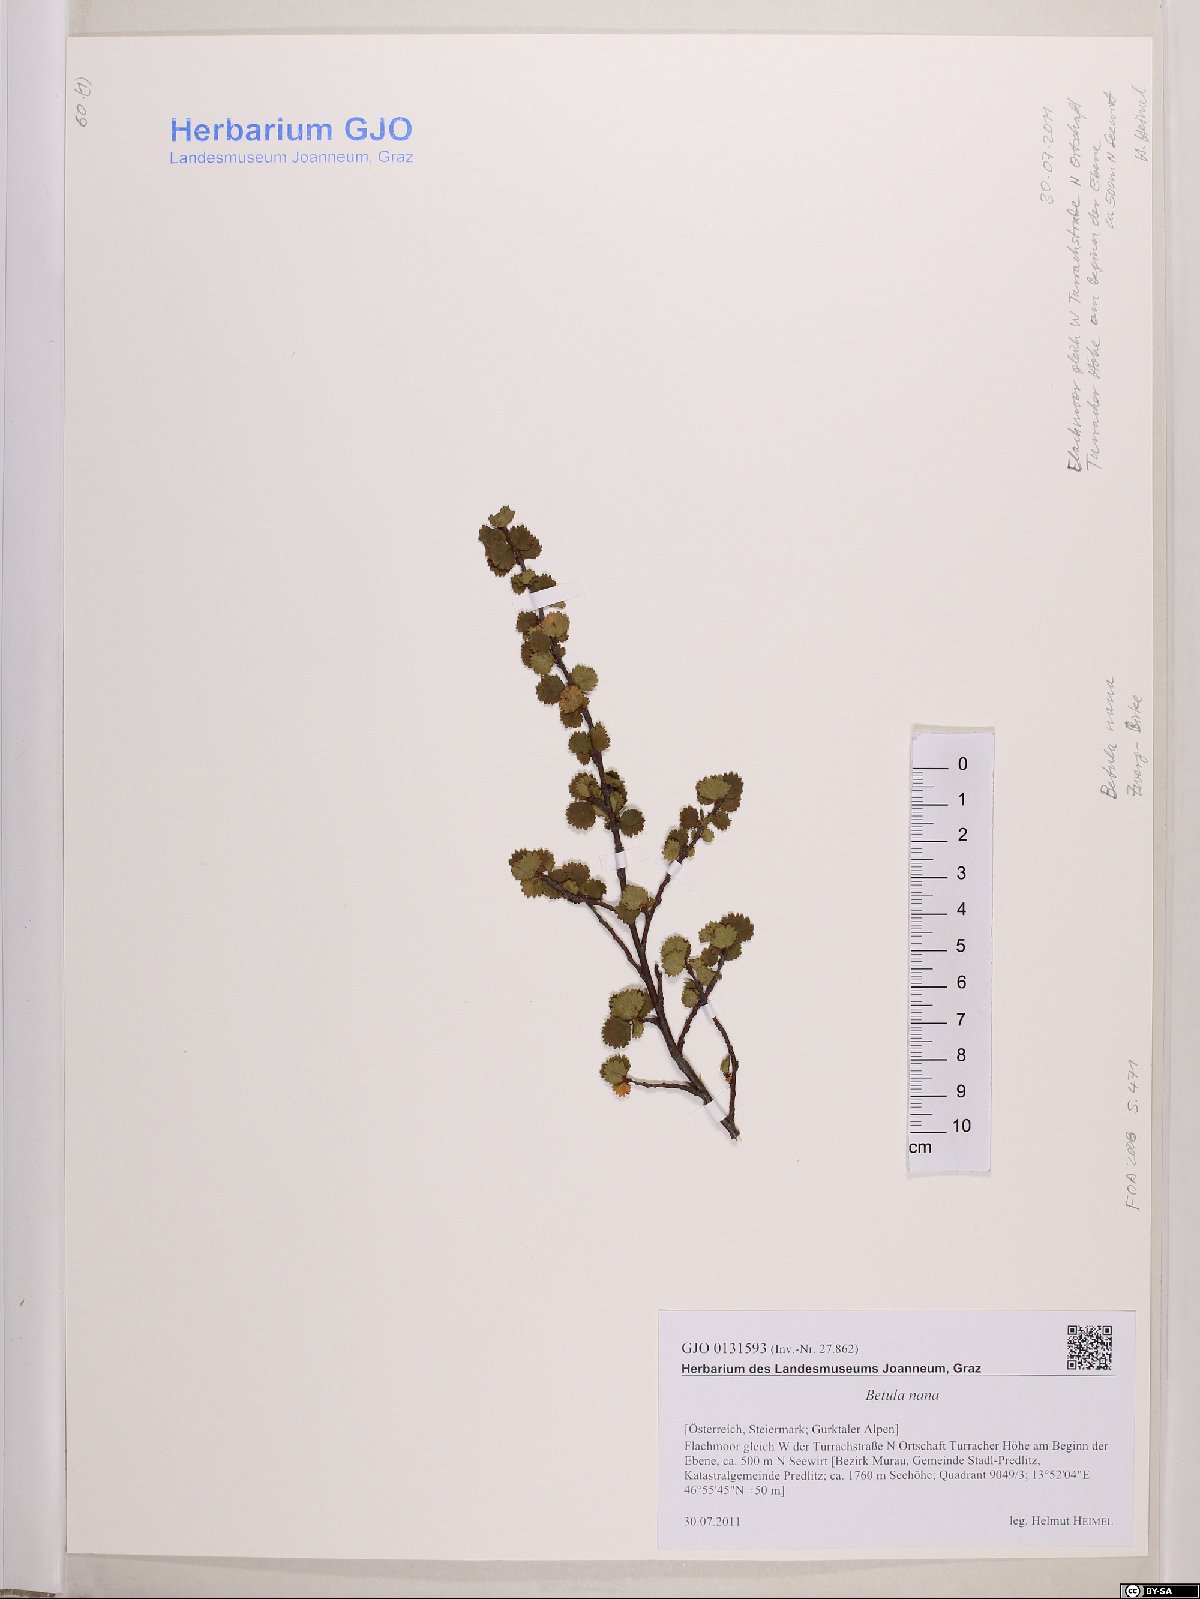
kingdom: Plantae
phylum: Tracheophyta
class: Magnoliopsida
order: Fagales
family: Betulaceae
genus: Betula
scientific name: Betula nana
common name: Arctic dwarf birch
